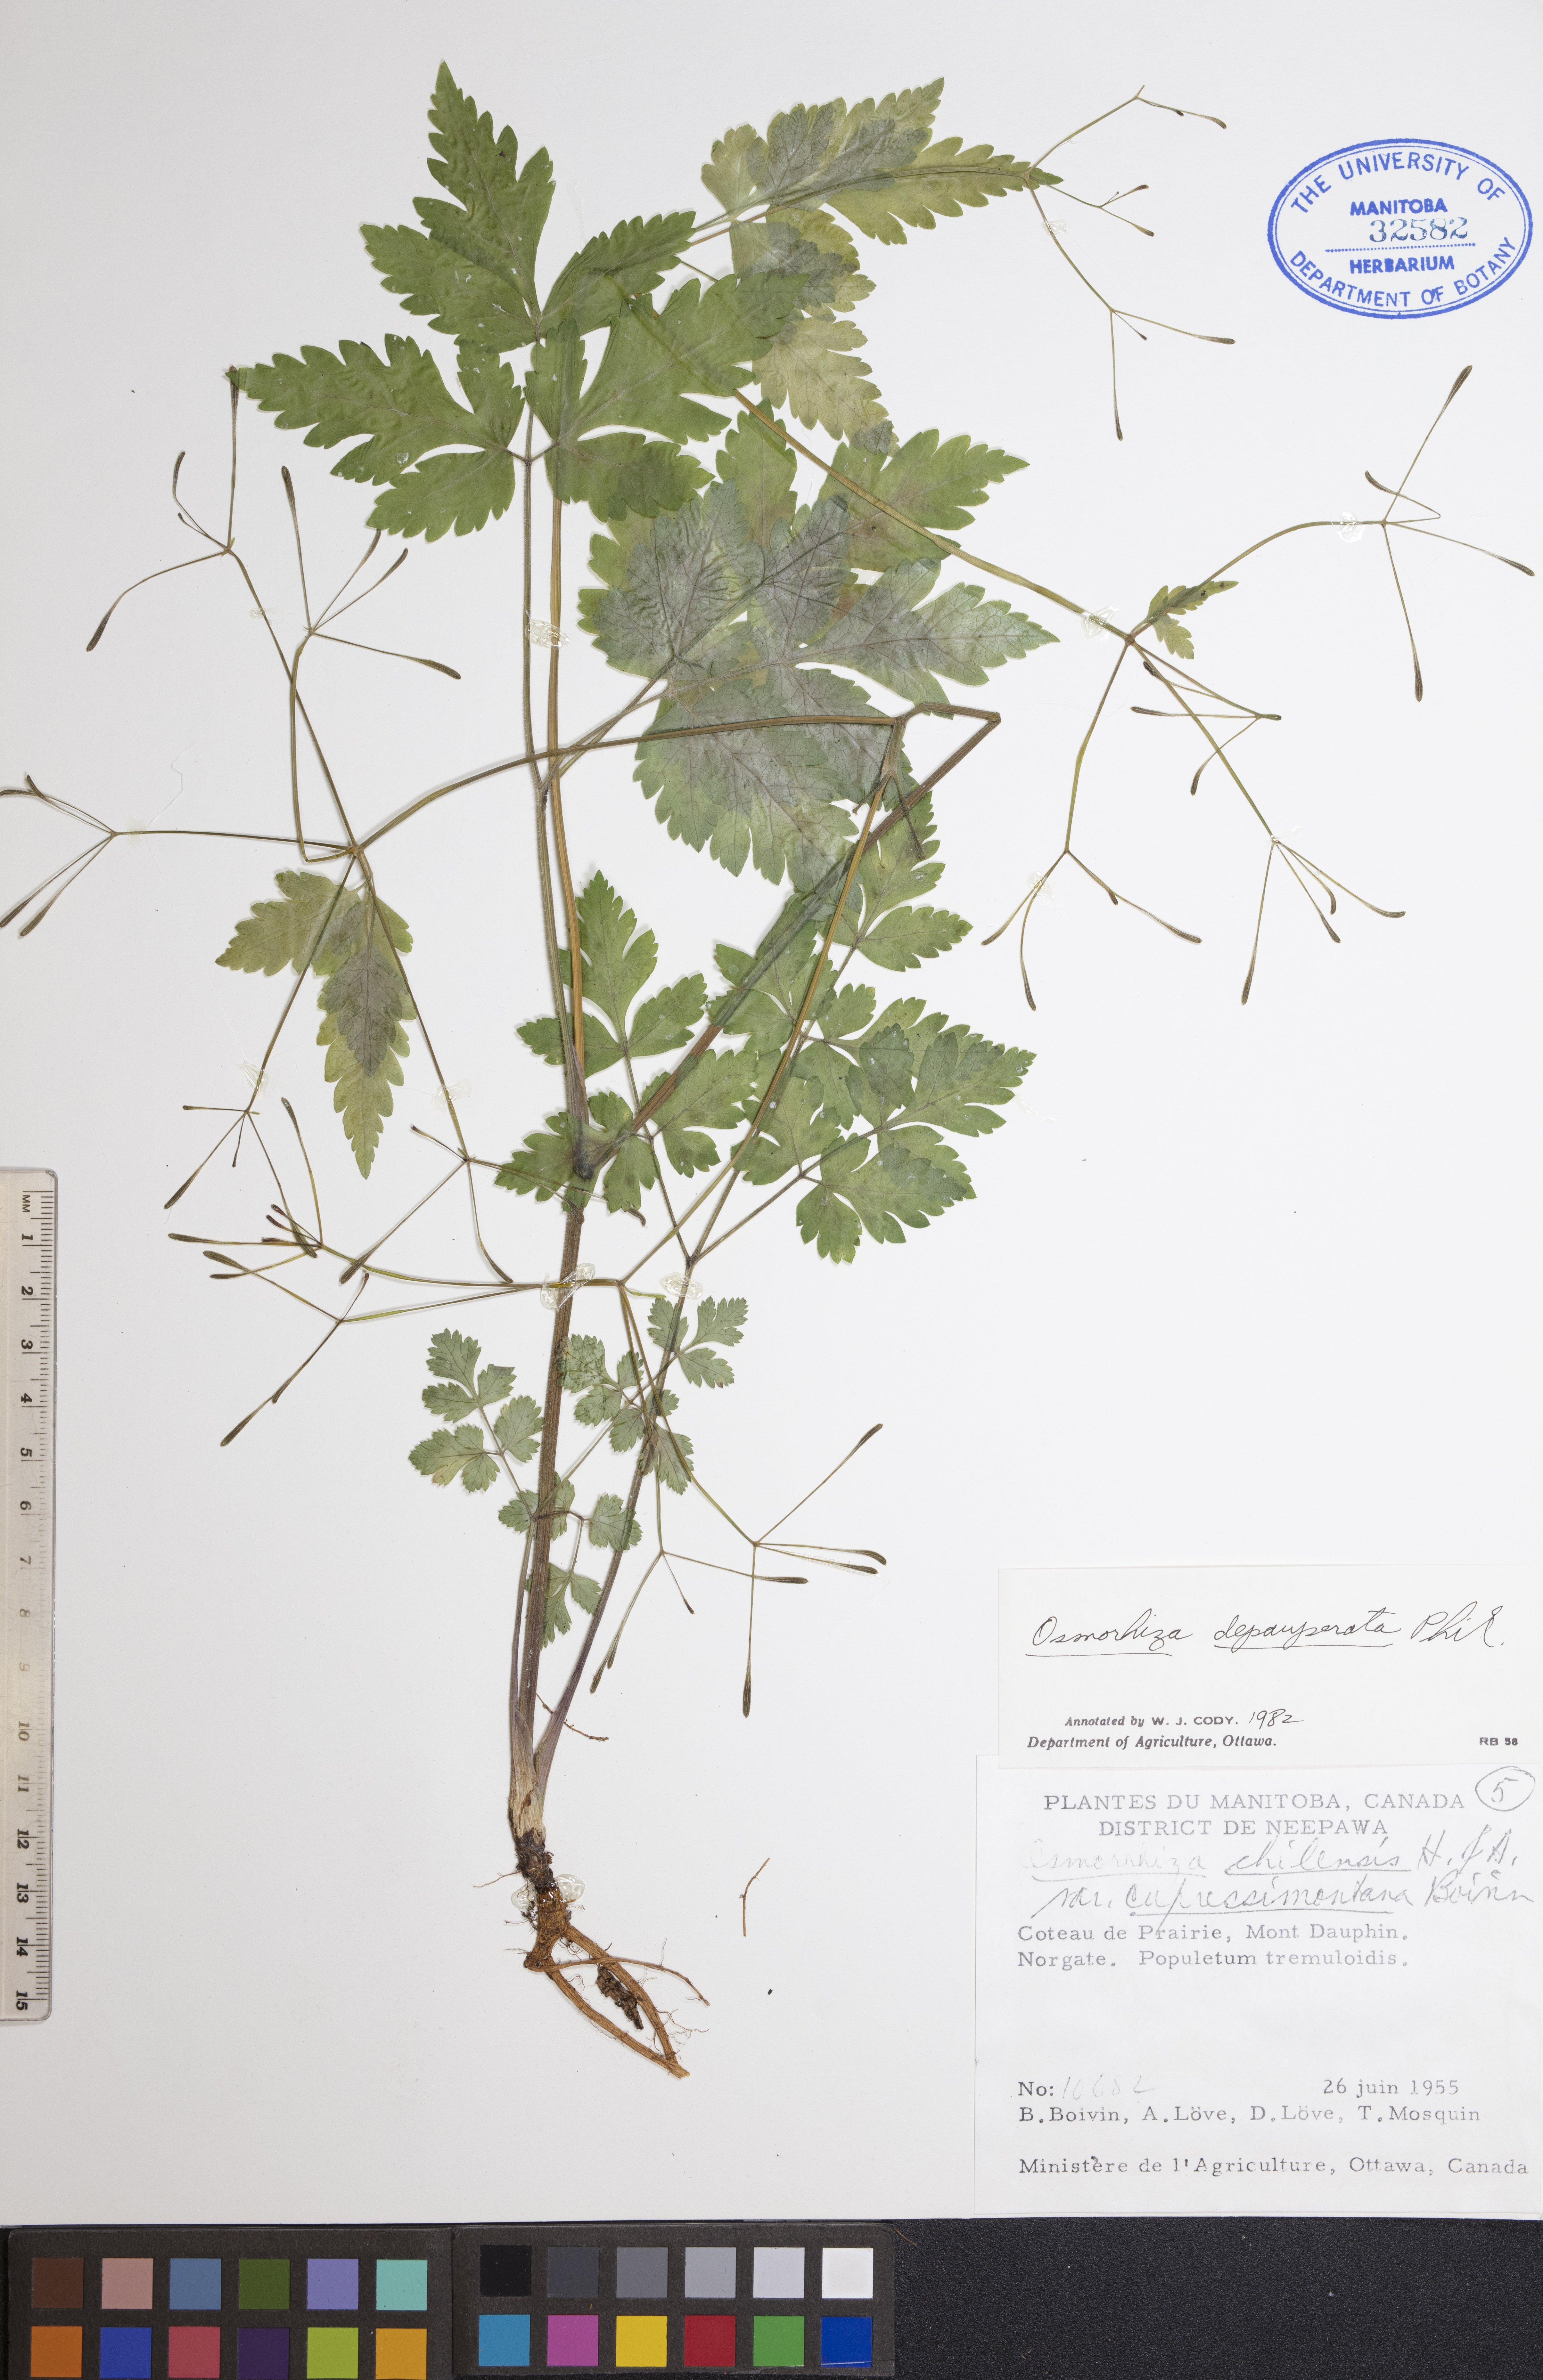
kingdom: Plantae
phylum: Tracheophyta
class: Magnoliopsida
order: Apiales
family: Apiaceae
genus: Osmorhiza
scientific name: Osmorhiza depauperata
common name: Blunt sweet cicely
